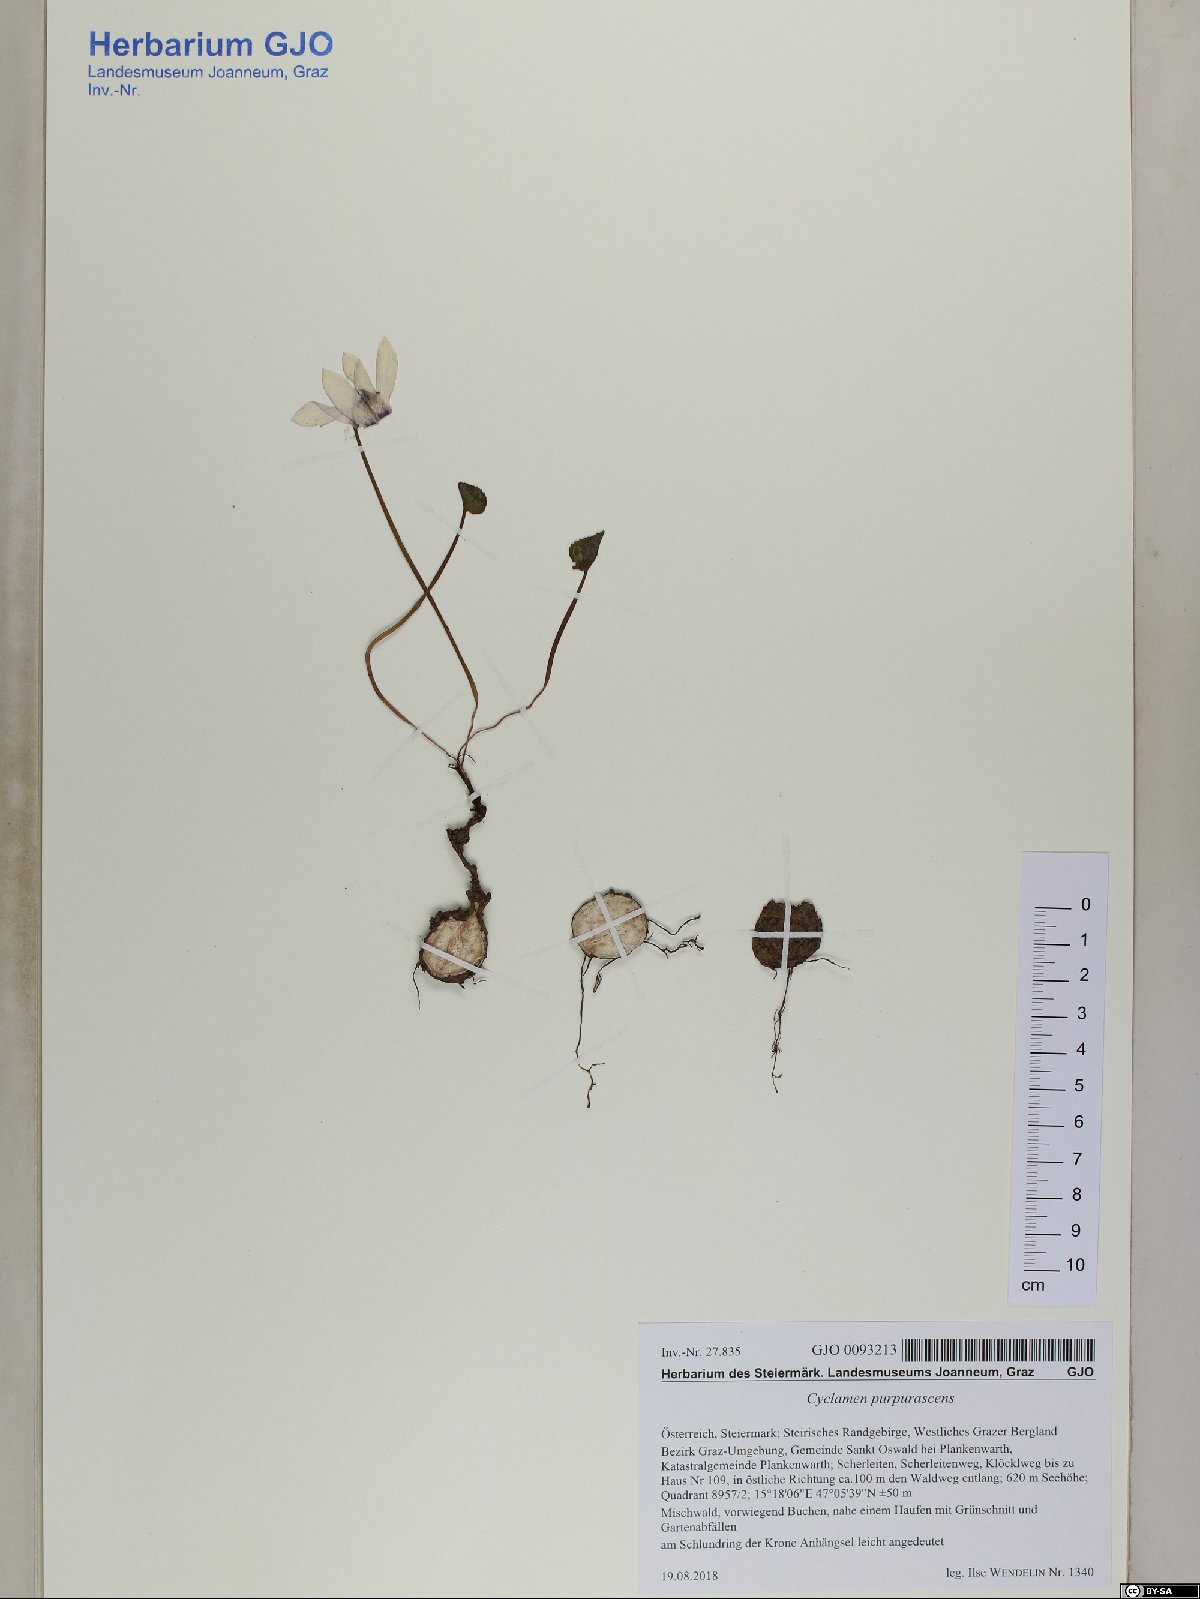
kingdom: Plantae
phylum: Tracheophyta
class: Magnoliopsida
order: Ericales
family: Primulaceae
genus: Cyclamen
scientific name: Cyclamen purpurascens
